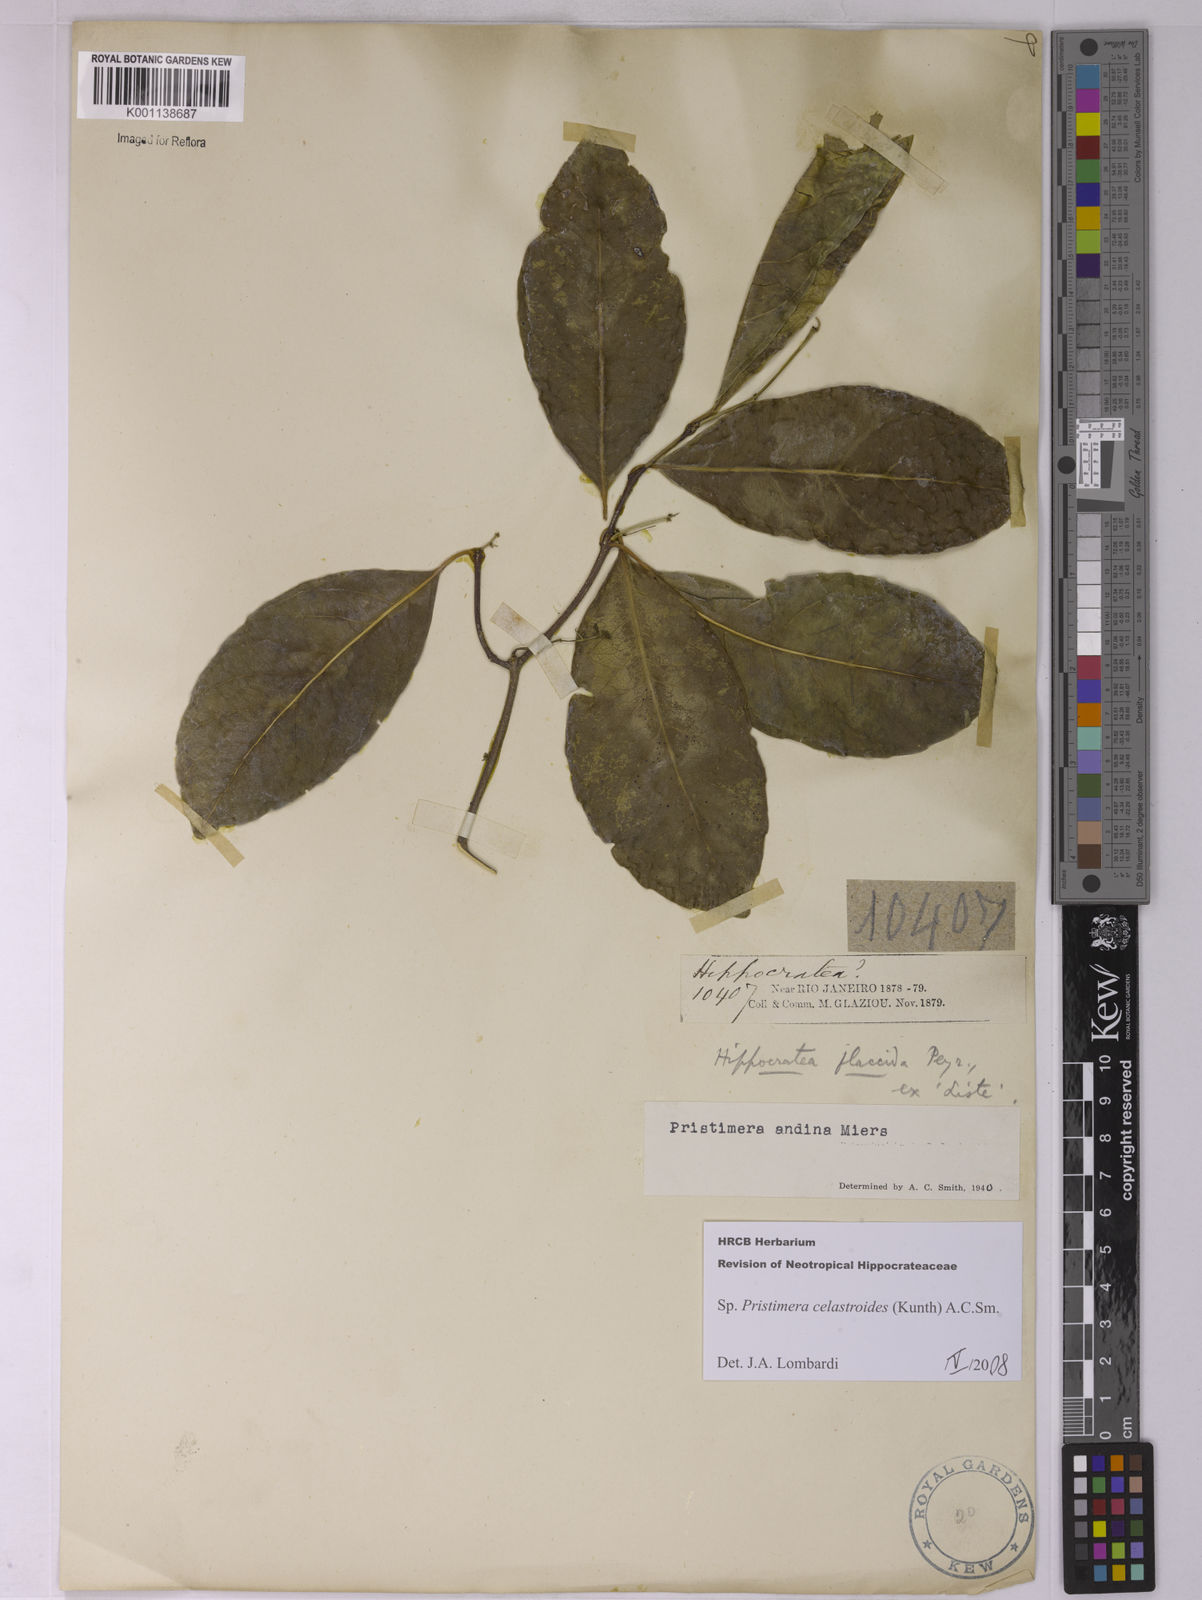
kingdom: Plantae
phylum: Tracheophyta
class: Magnoliopsida
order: Celastrales
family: Celastraceae
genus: Pristimera
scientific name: Pristimera celastroides
